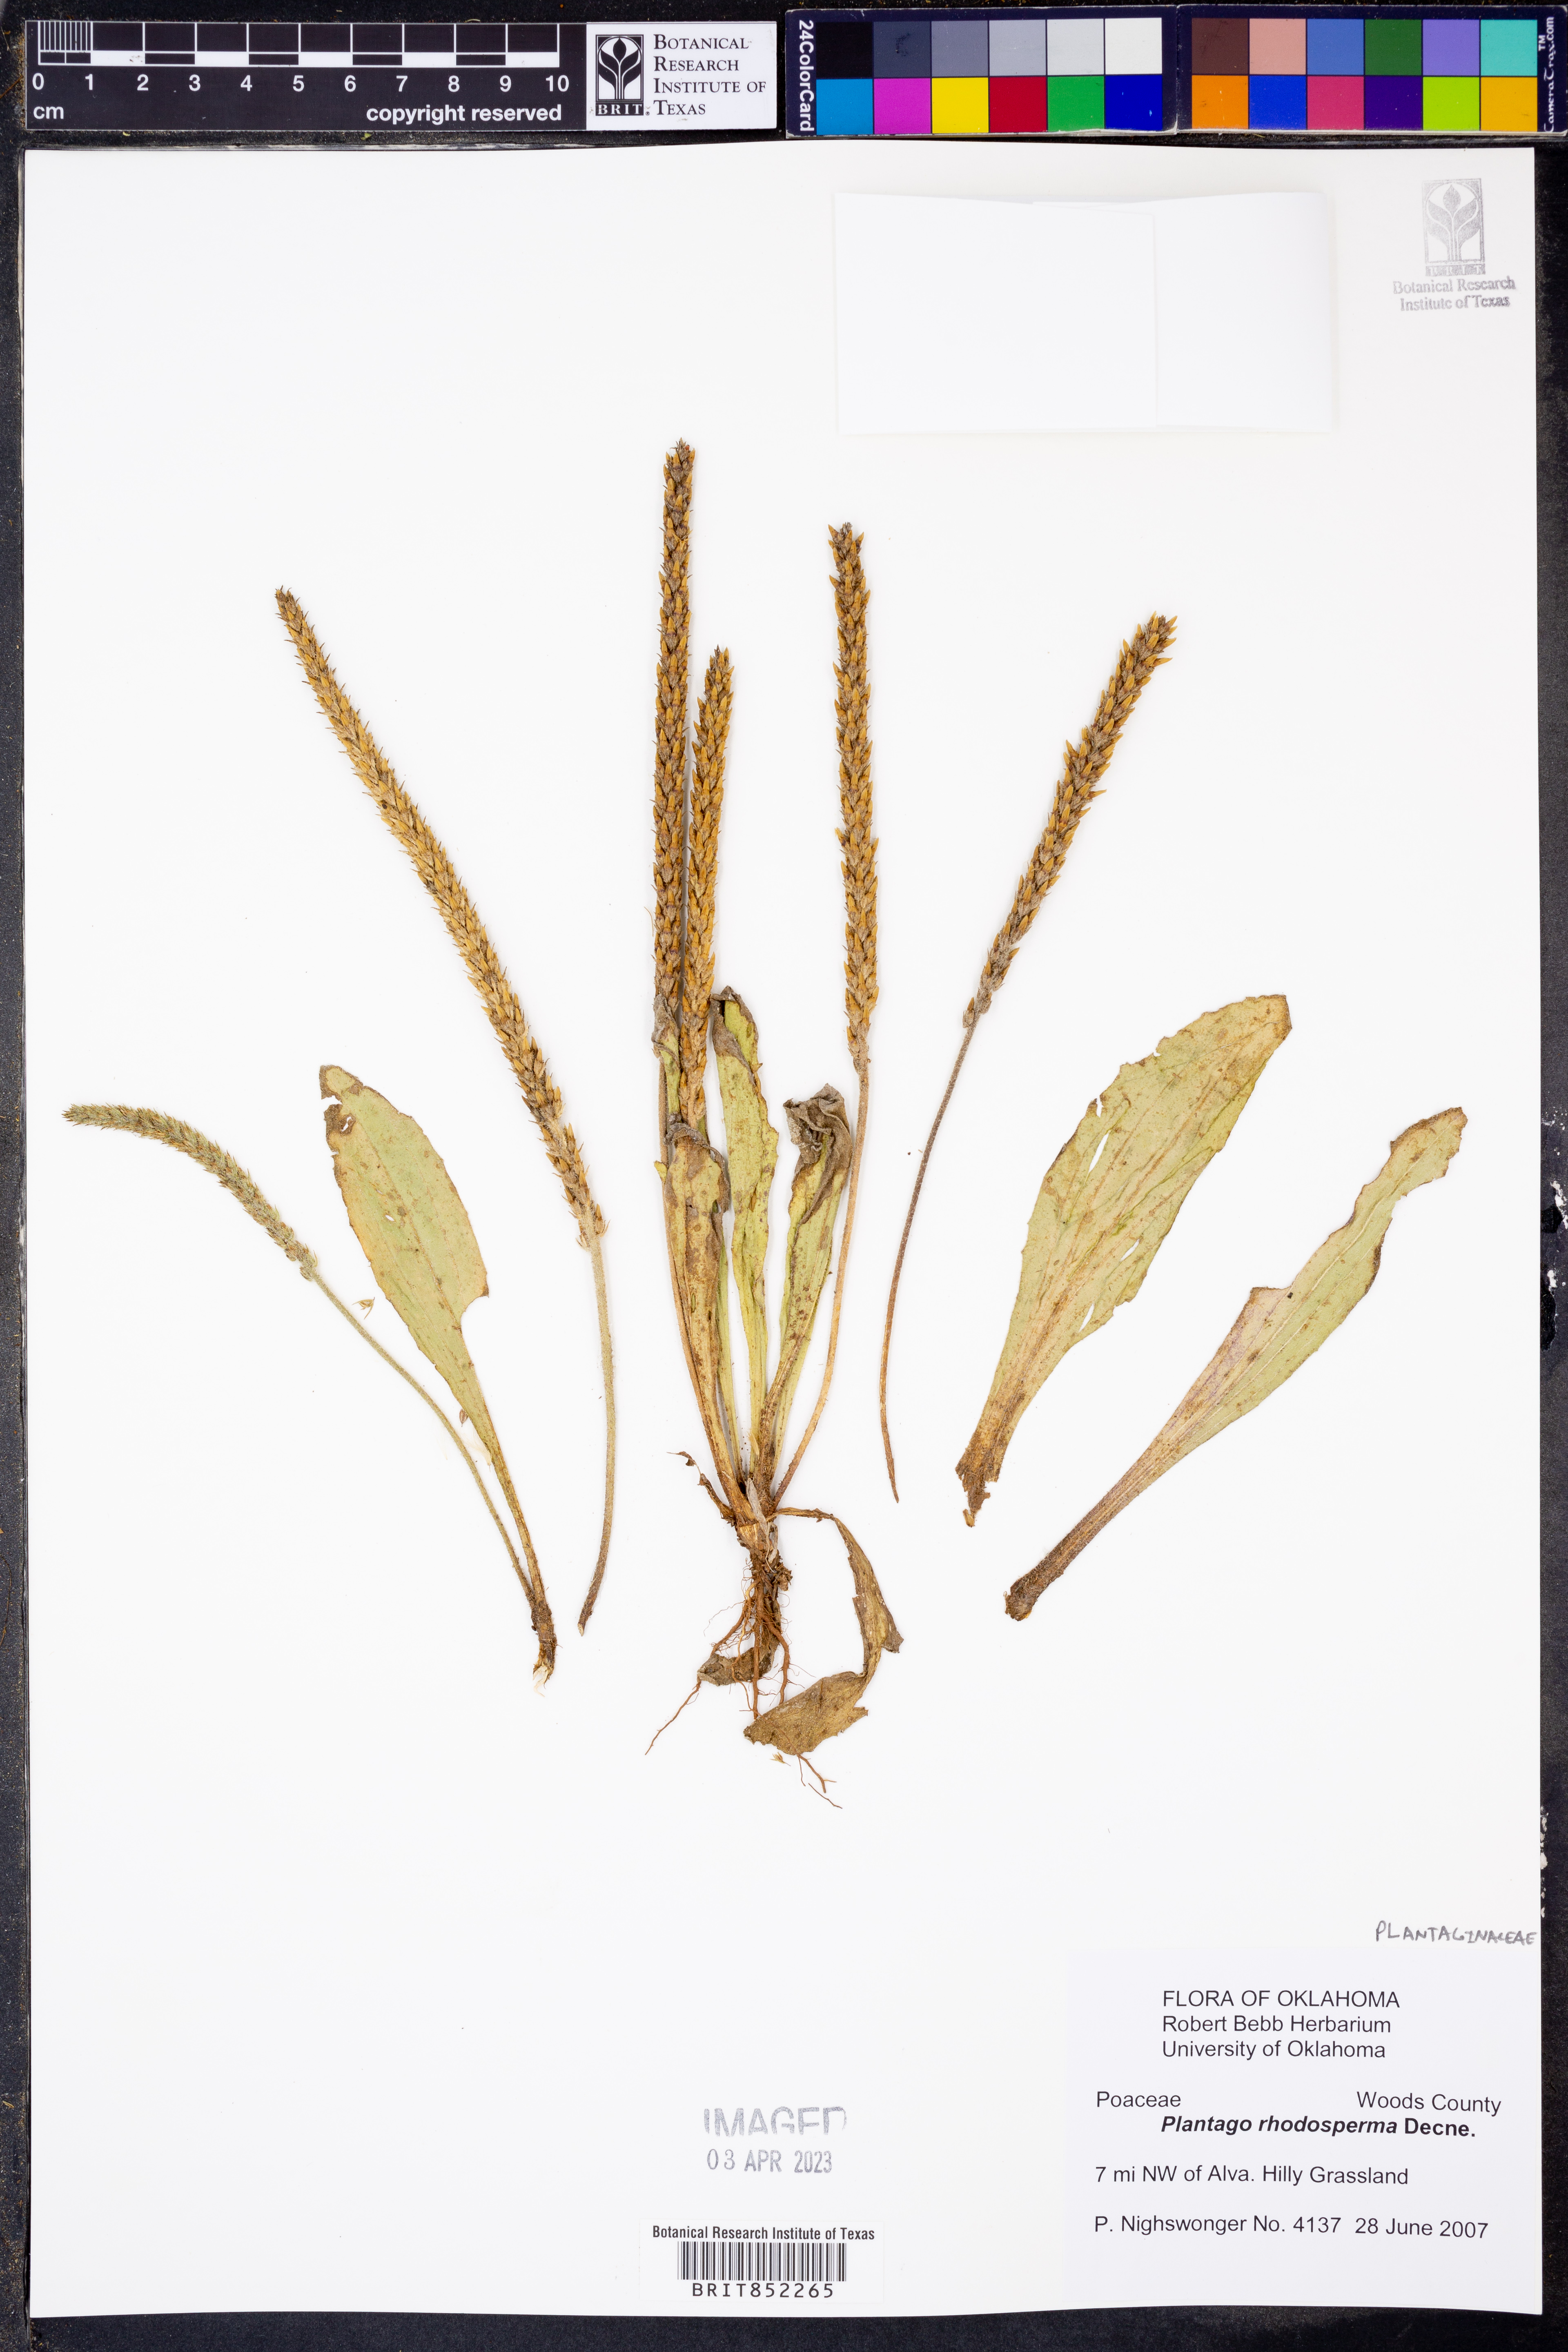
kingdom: Plantae
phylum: Tracheophyta
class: Magnoliopsida
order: Lamiales
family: Plantaginaceae
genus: Plantago
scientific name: Plantago rhodosperma
